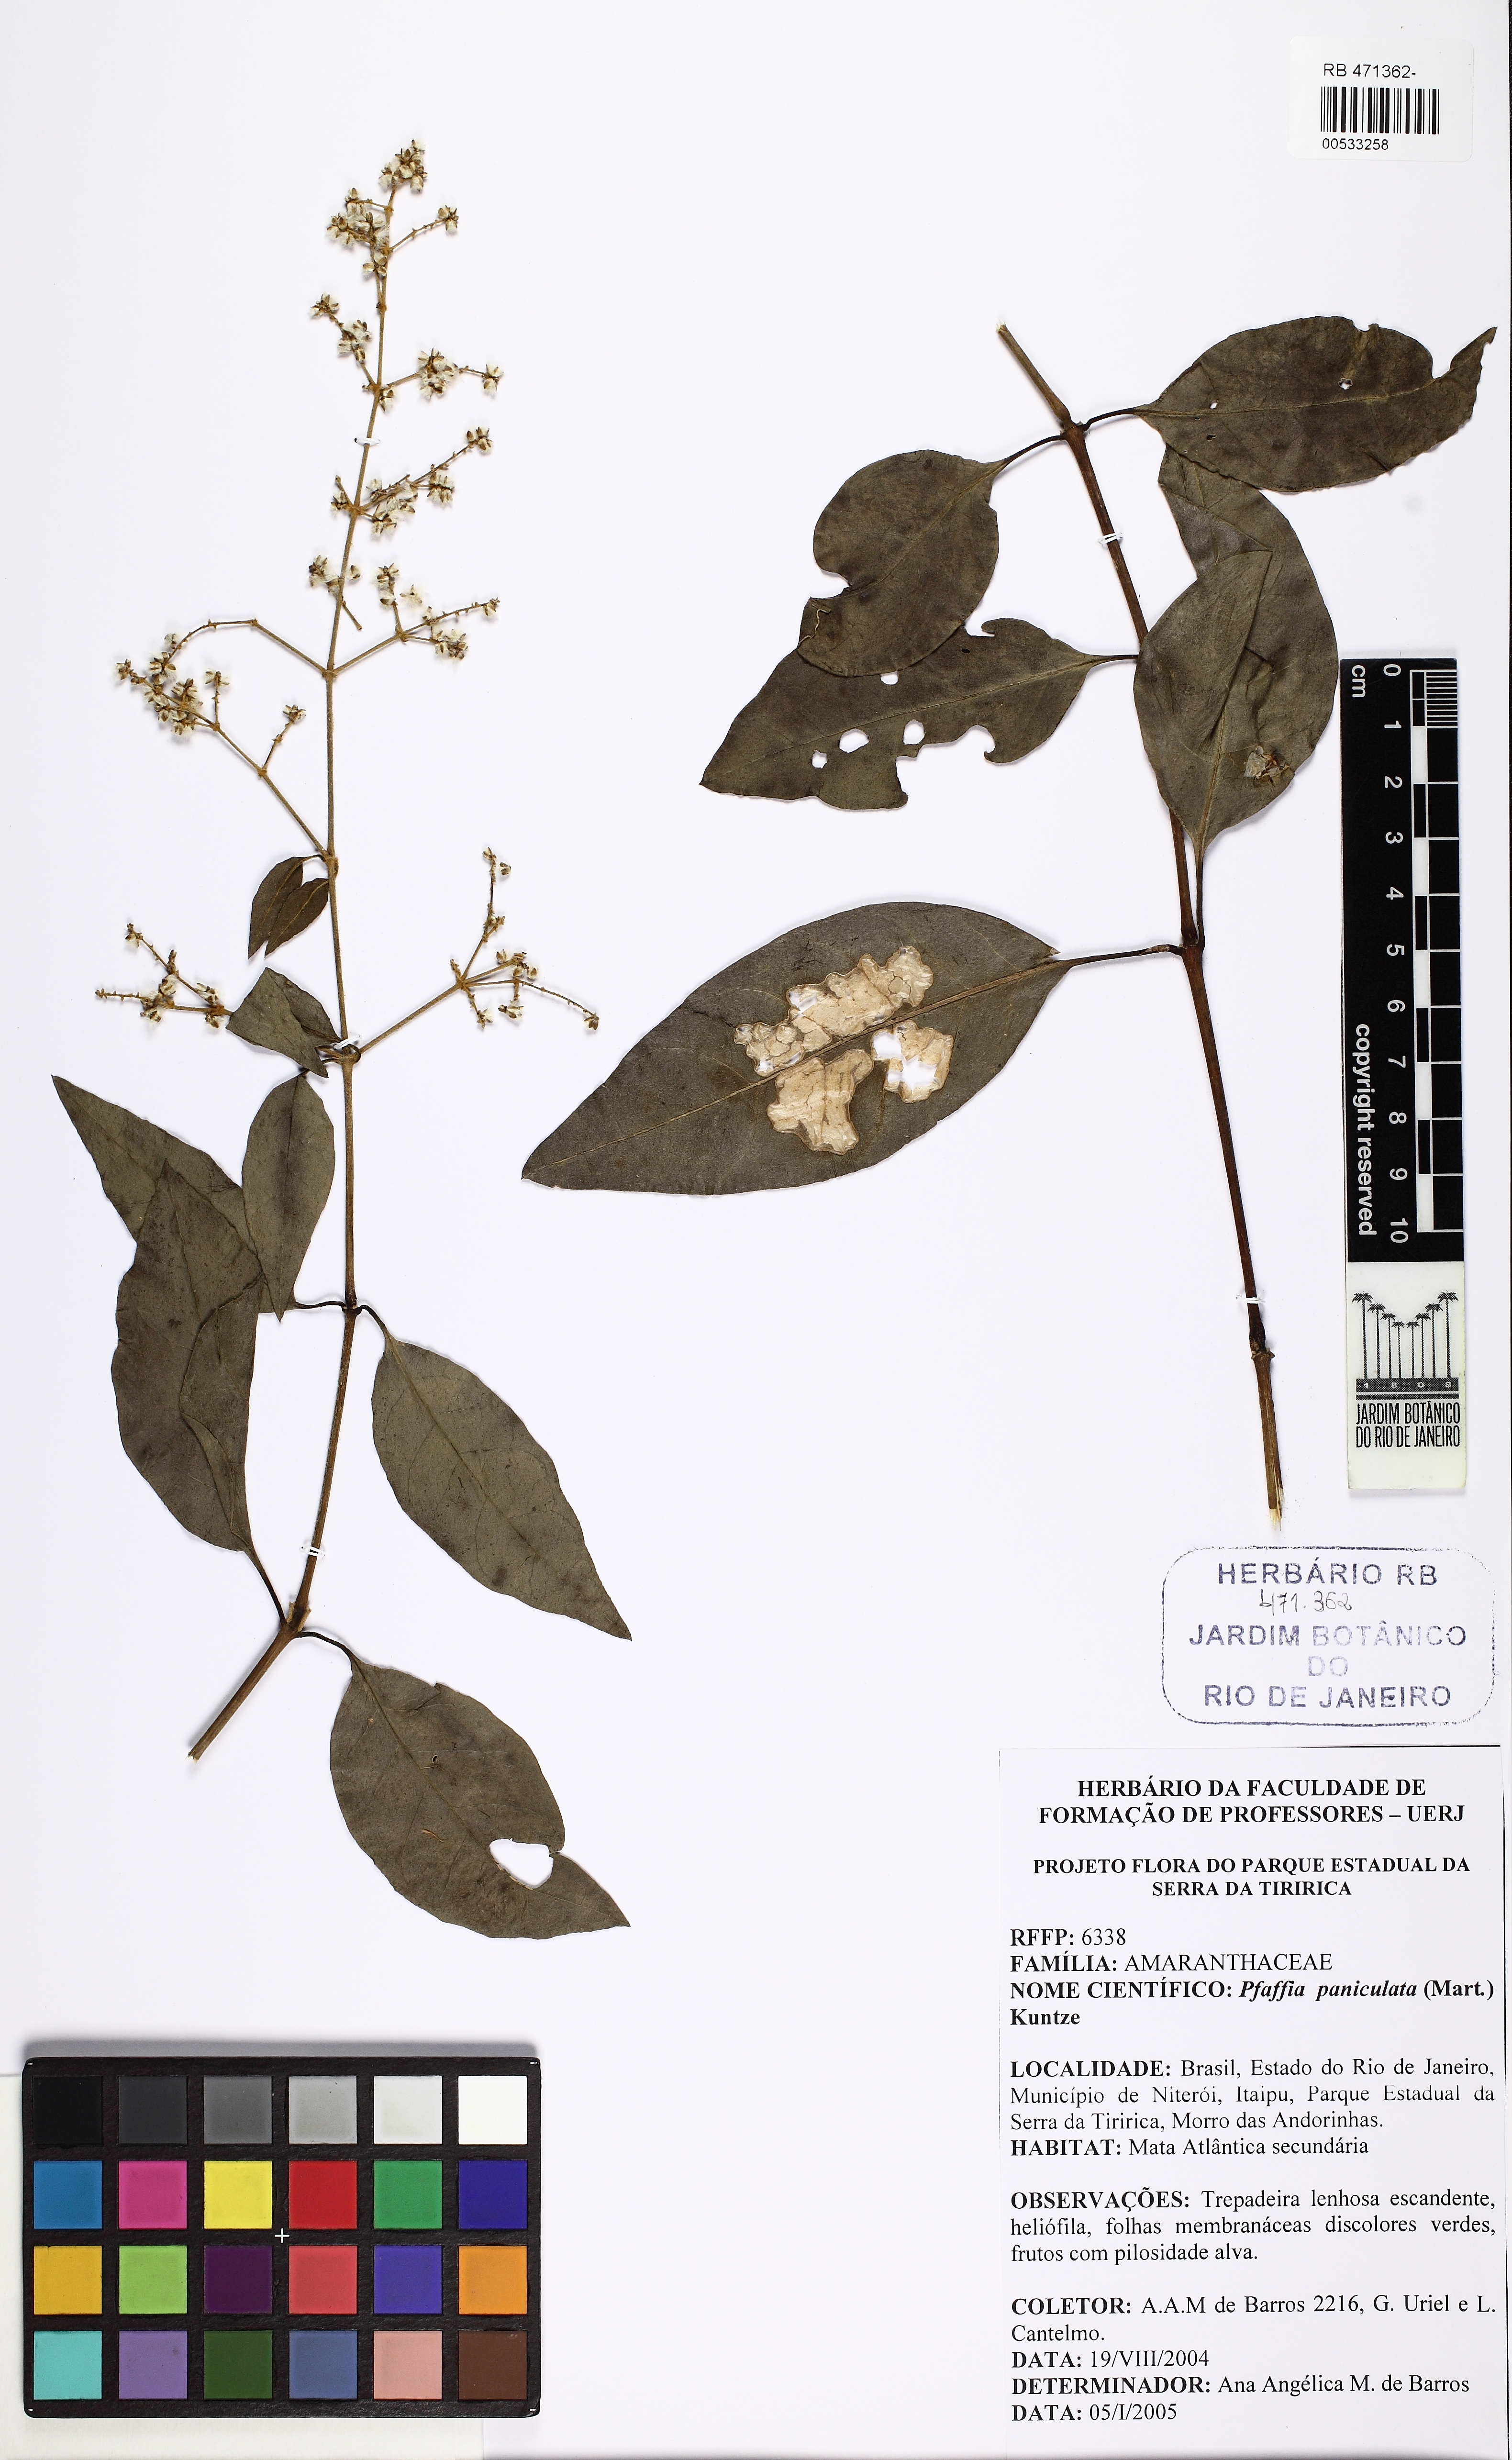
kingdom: Plantae
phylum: Tracheophyta
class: Magnoliopsida
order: Caryophyllales
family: Amaranthaceae
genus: Hebanthe
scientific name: Hebanthe erianthos
